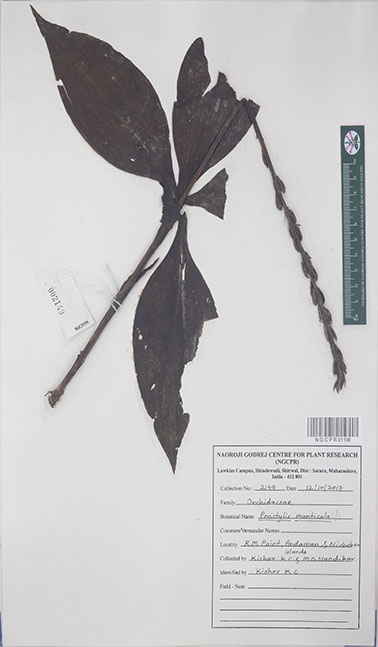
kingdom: Plantae
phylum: Tracheophyta
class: Liliopsida
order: Asparagales
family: Orchidaceae
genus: Peristylus
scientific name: Peristylus monticola
